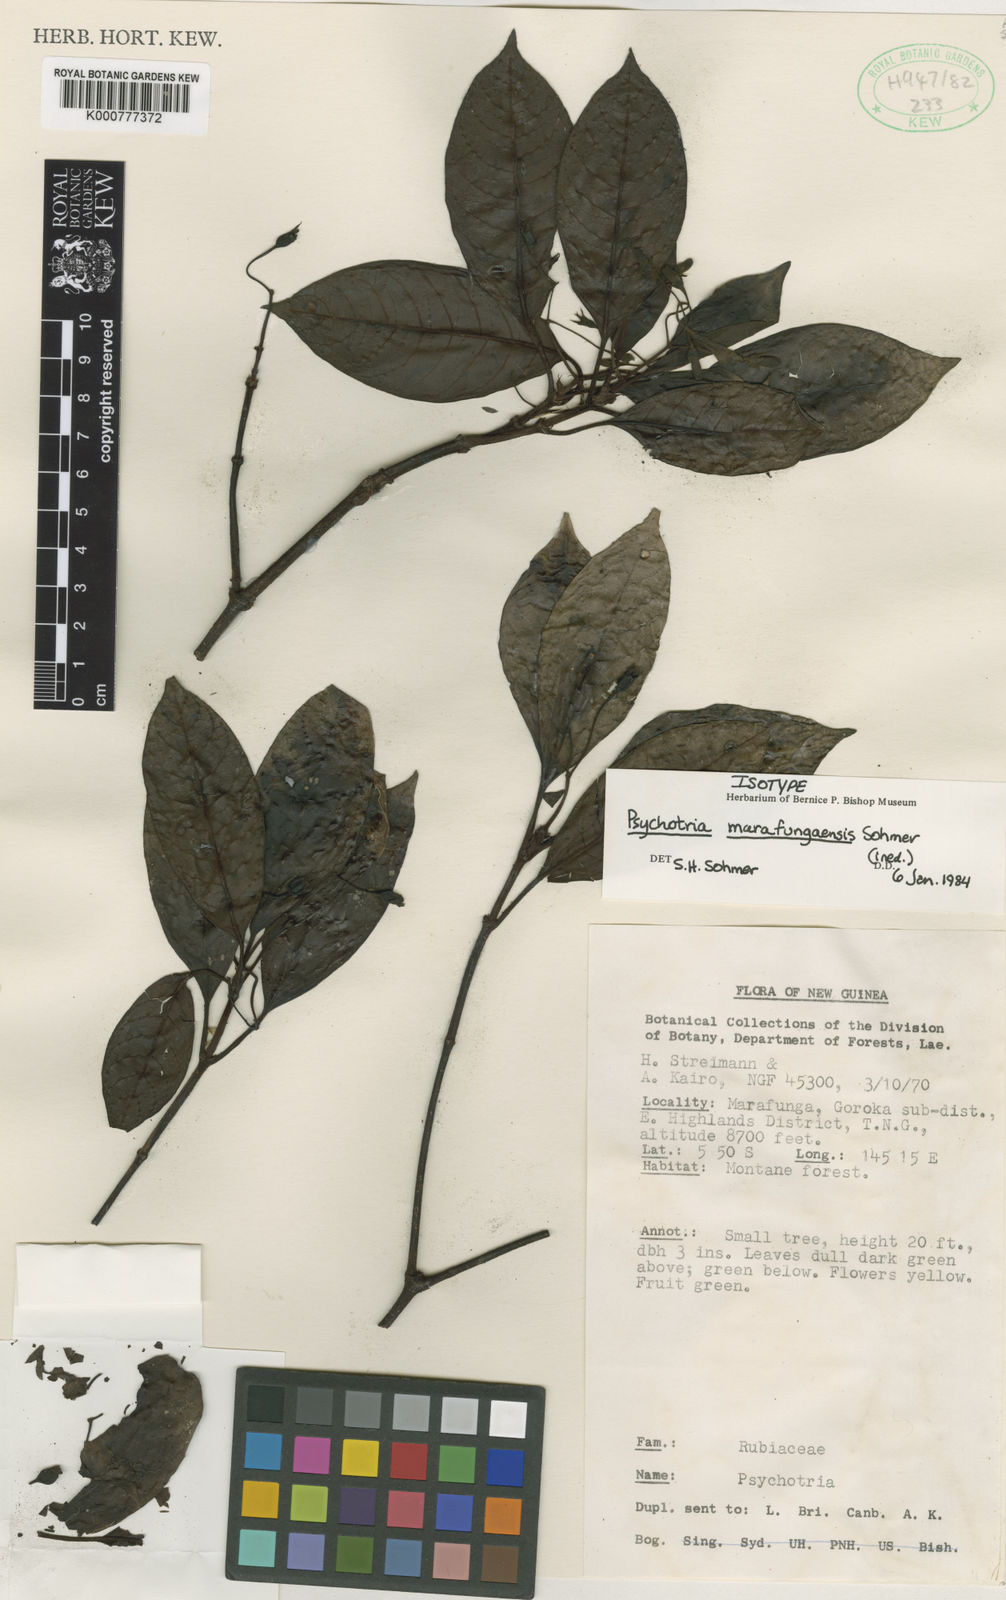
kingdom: Plantae
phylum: Tracheophyta
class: Magnoliopsida
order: Gentianales
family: Rubiaceae
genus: Psychotria
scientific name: Psychotria marafungaensis
